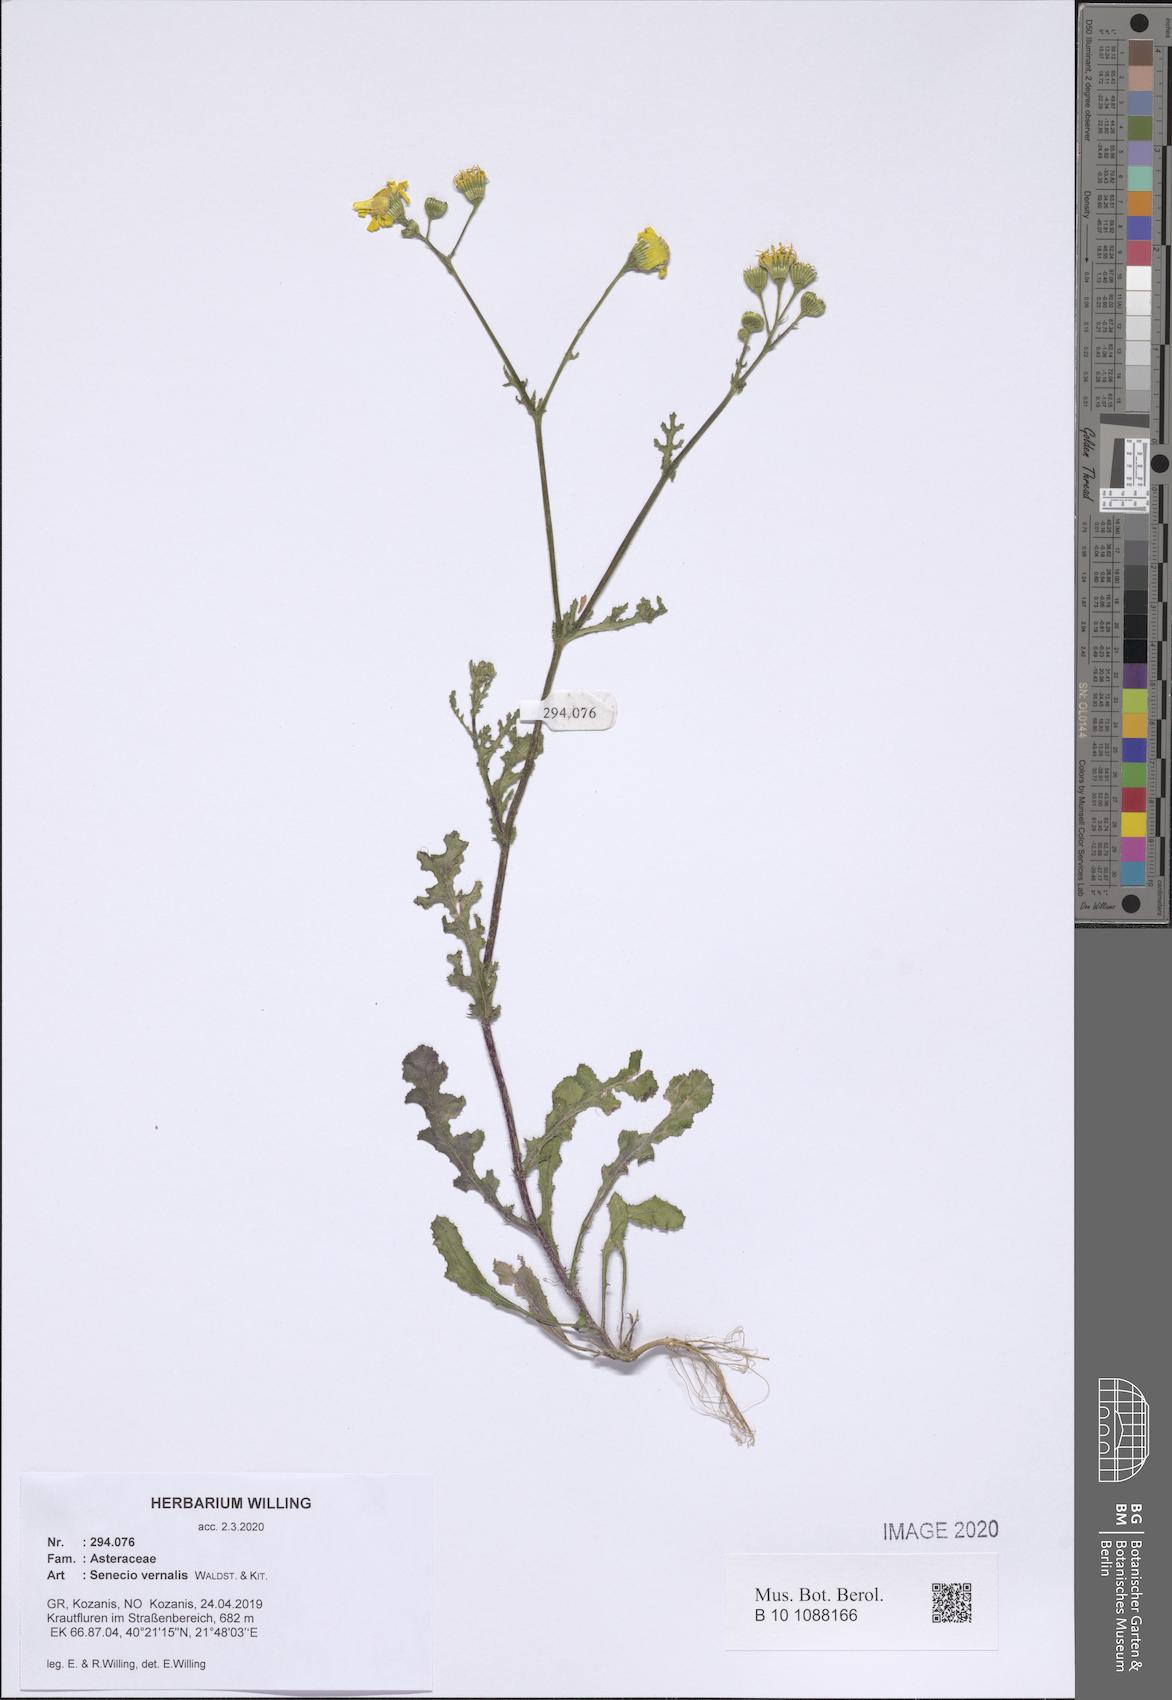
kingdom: Plantae
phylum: Tracheophyta
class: Magnoliopsida
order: Asterales
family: Asteraceae
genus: Senecio
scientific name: Senecio vernalis
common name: Eastern groundsel
